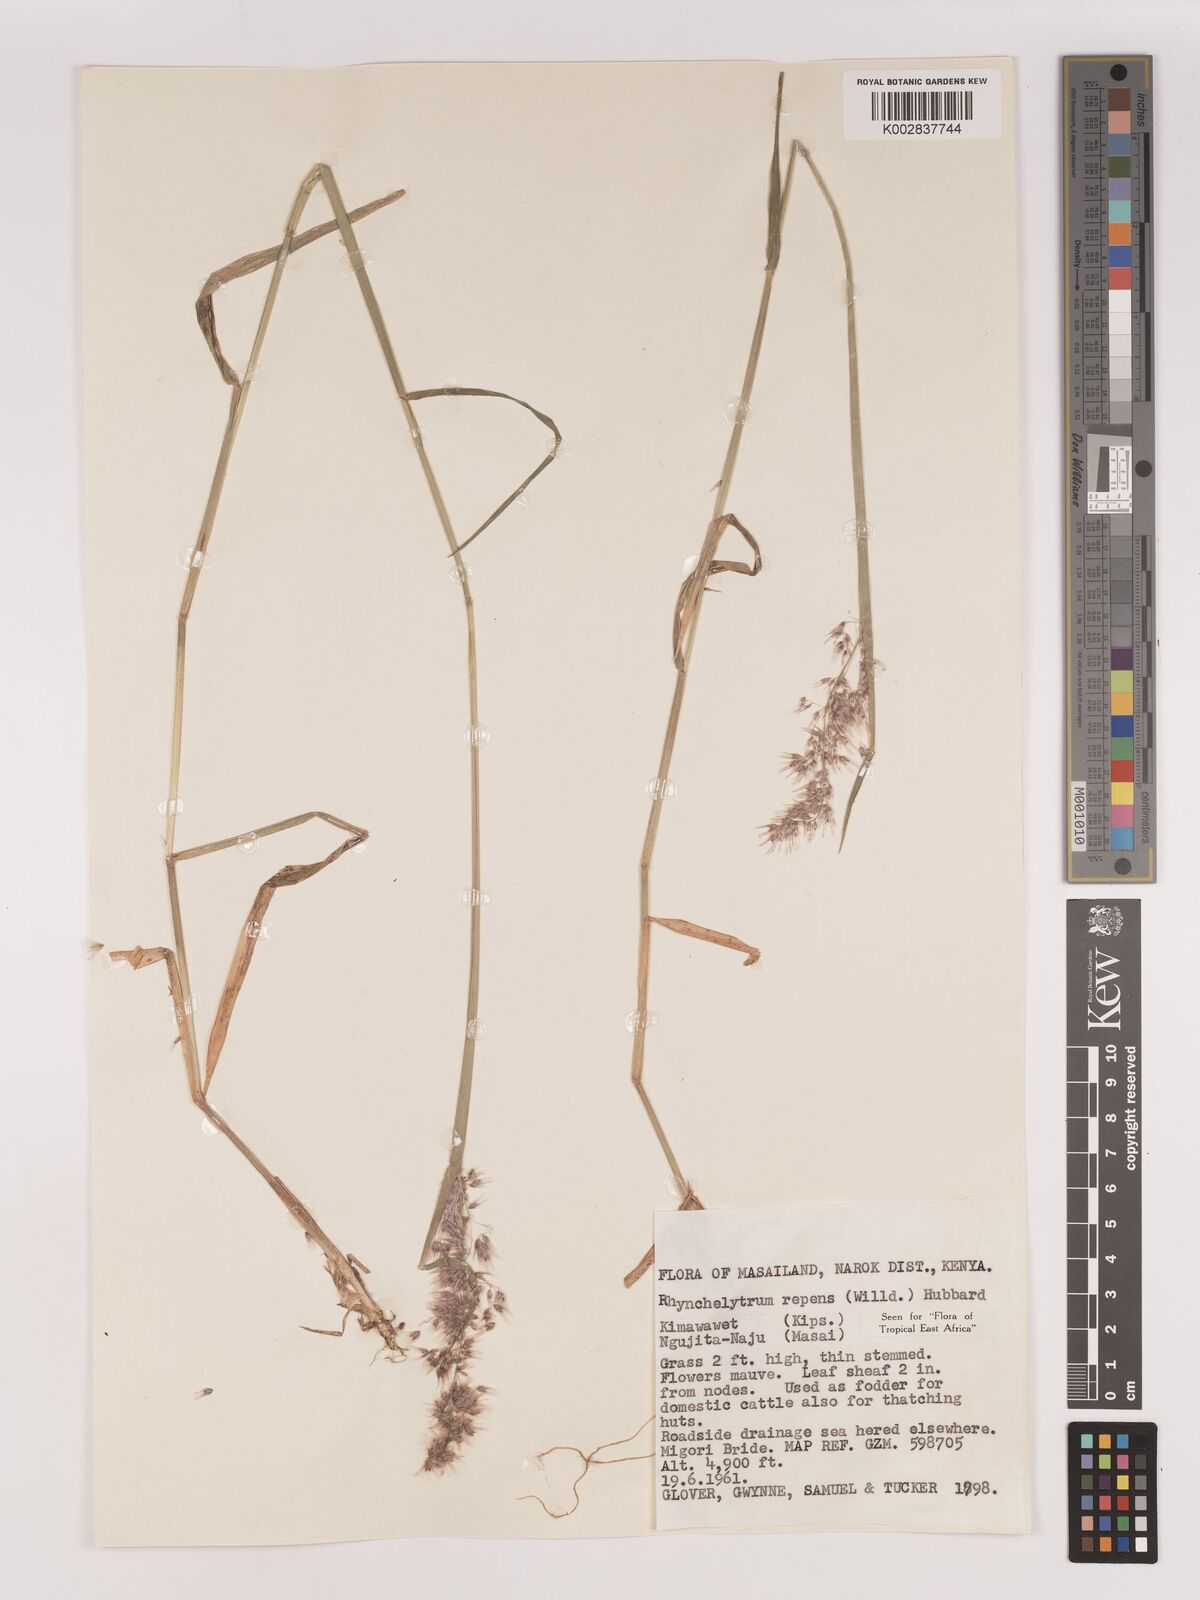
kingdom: Plantae
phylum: Tracheophyta
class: Liliopsida
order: Poales
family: Poaceae
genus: Melinis
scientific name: Melinis repens
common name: Rose natal grass
